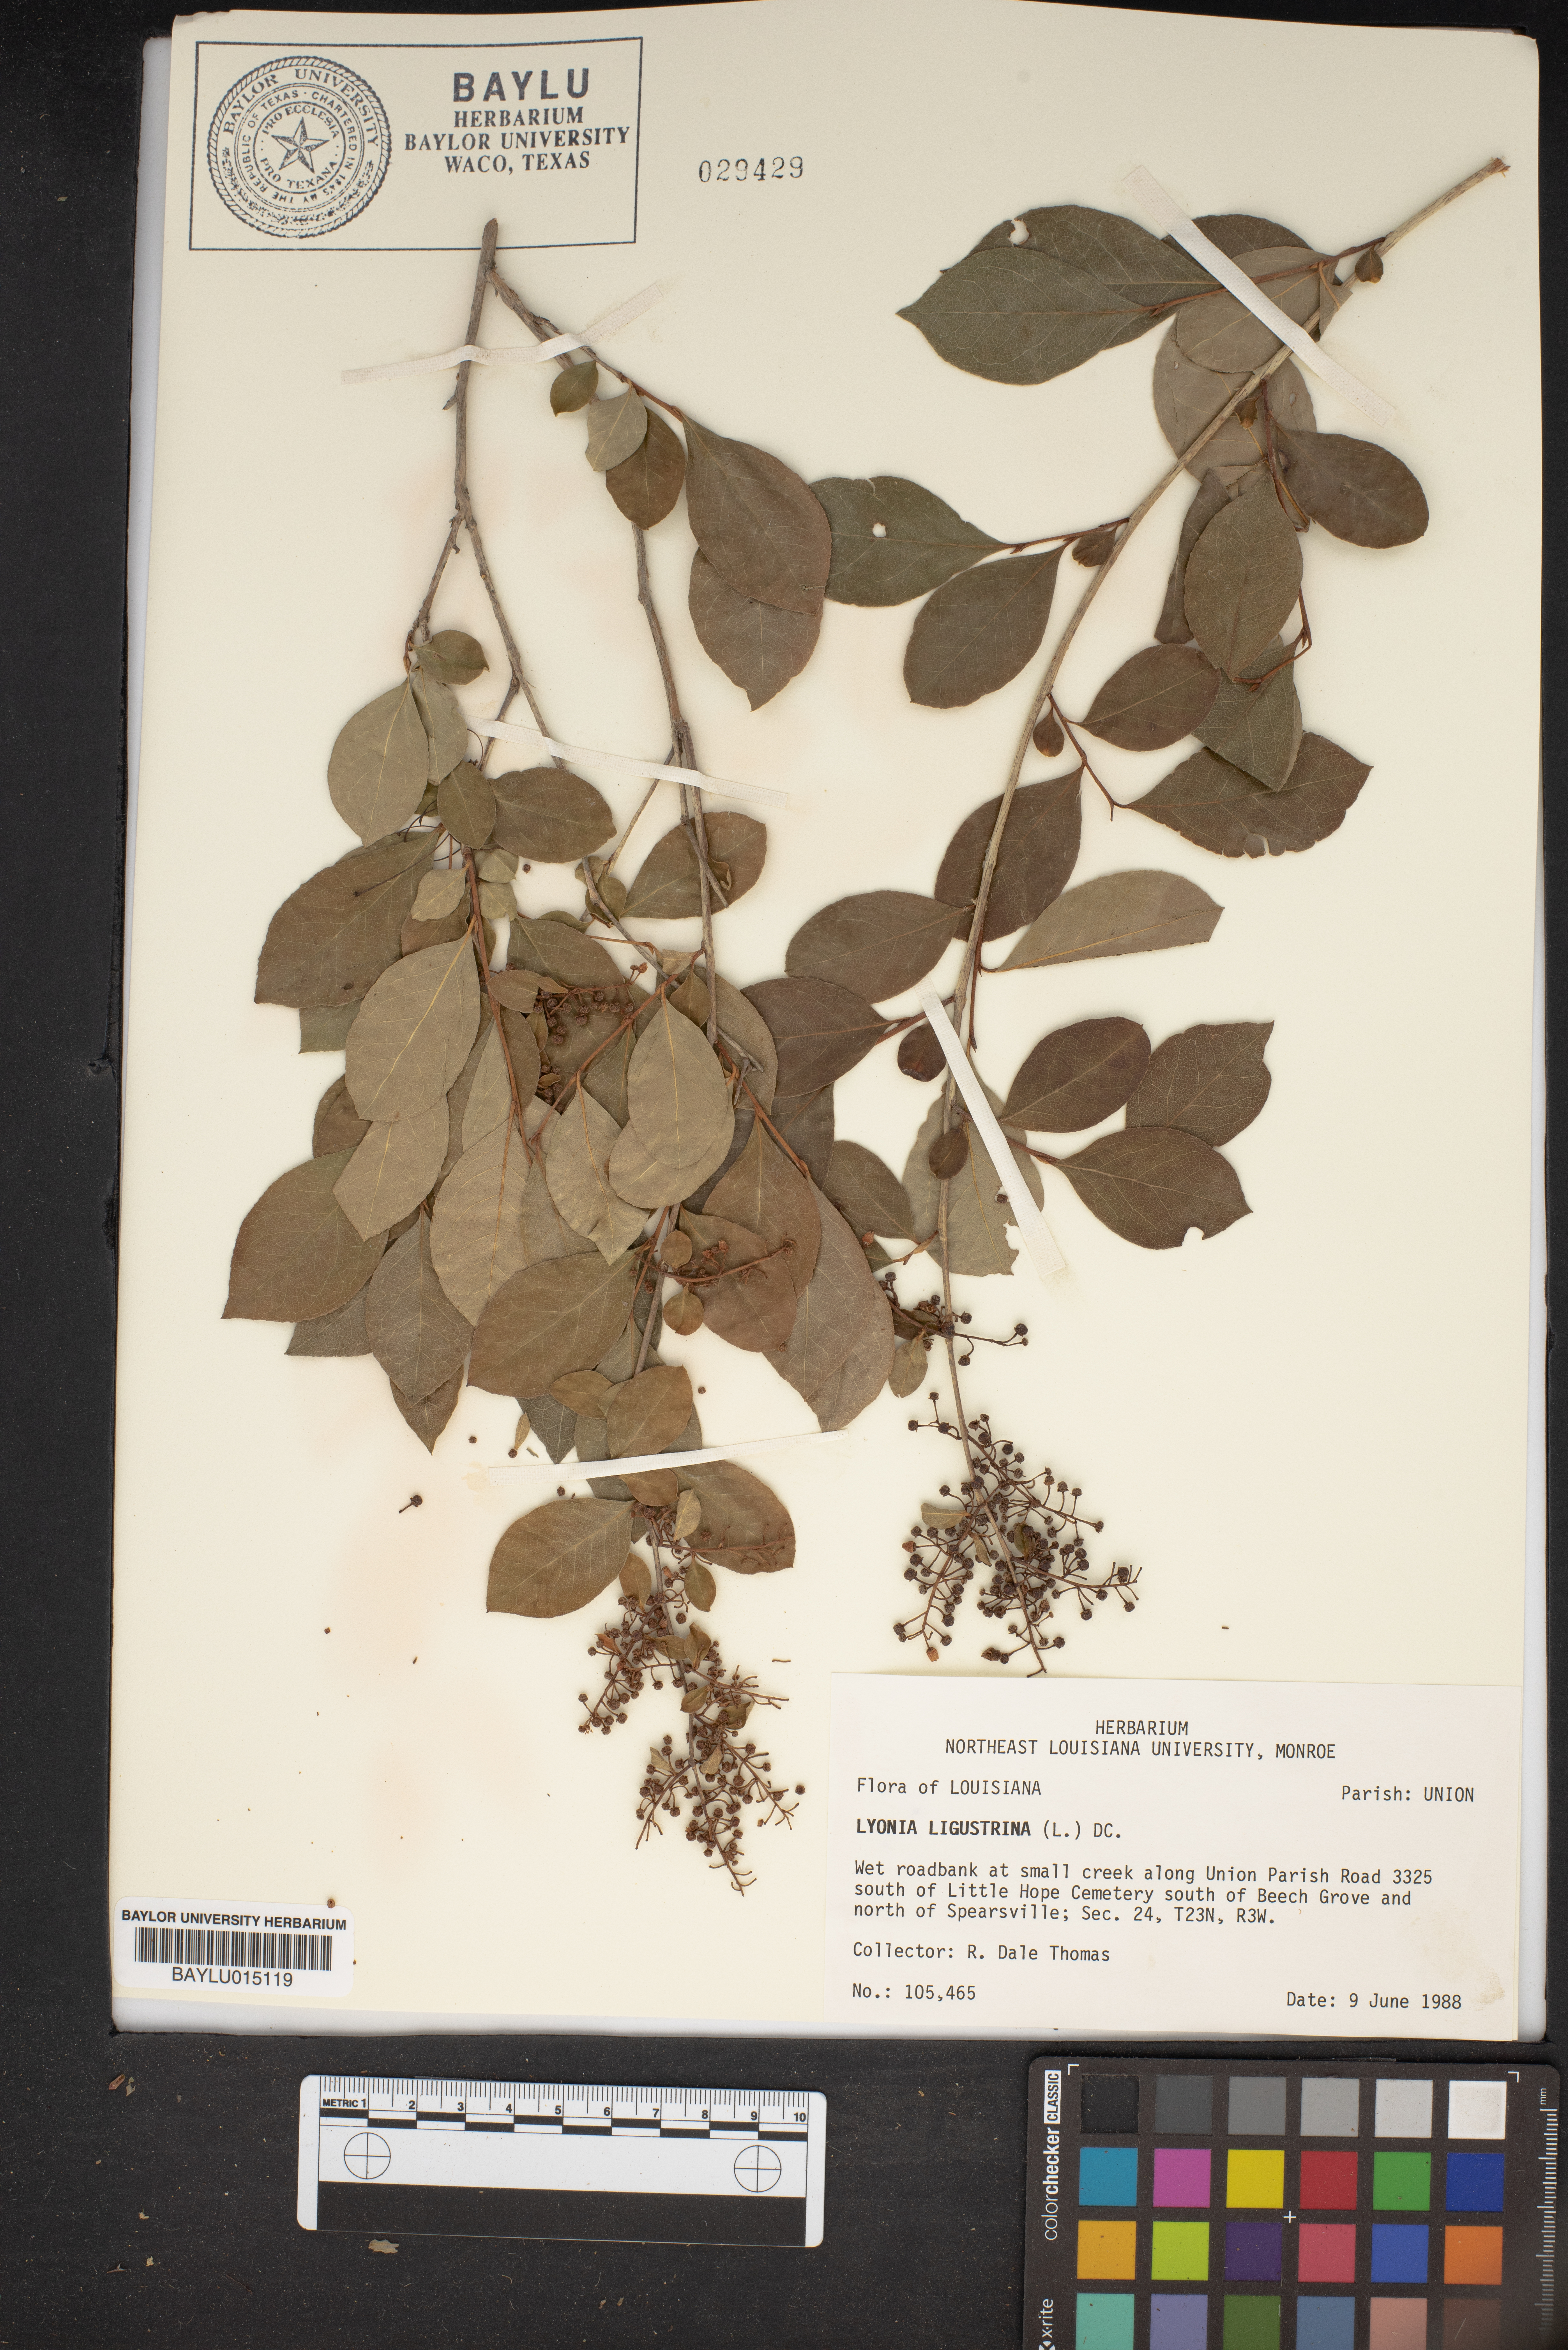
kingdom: Plantae
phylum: Tracheophyta
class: Magnoliopsida
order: Ericales
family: Ericaceae
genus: Lyonia
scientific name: Lyonia ligustrina
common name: Maleberry
